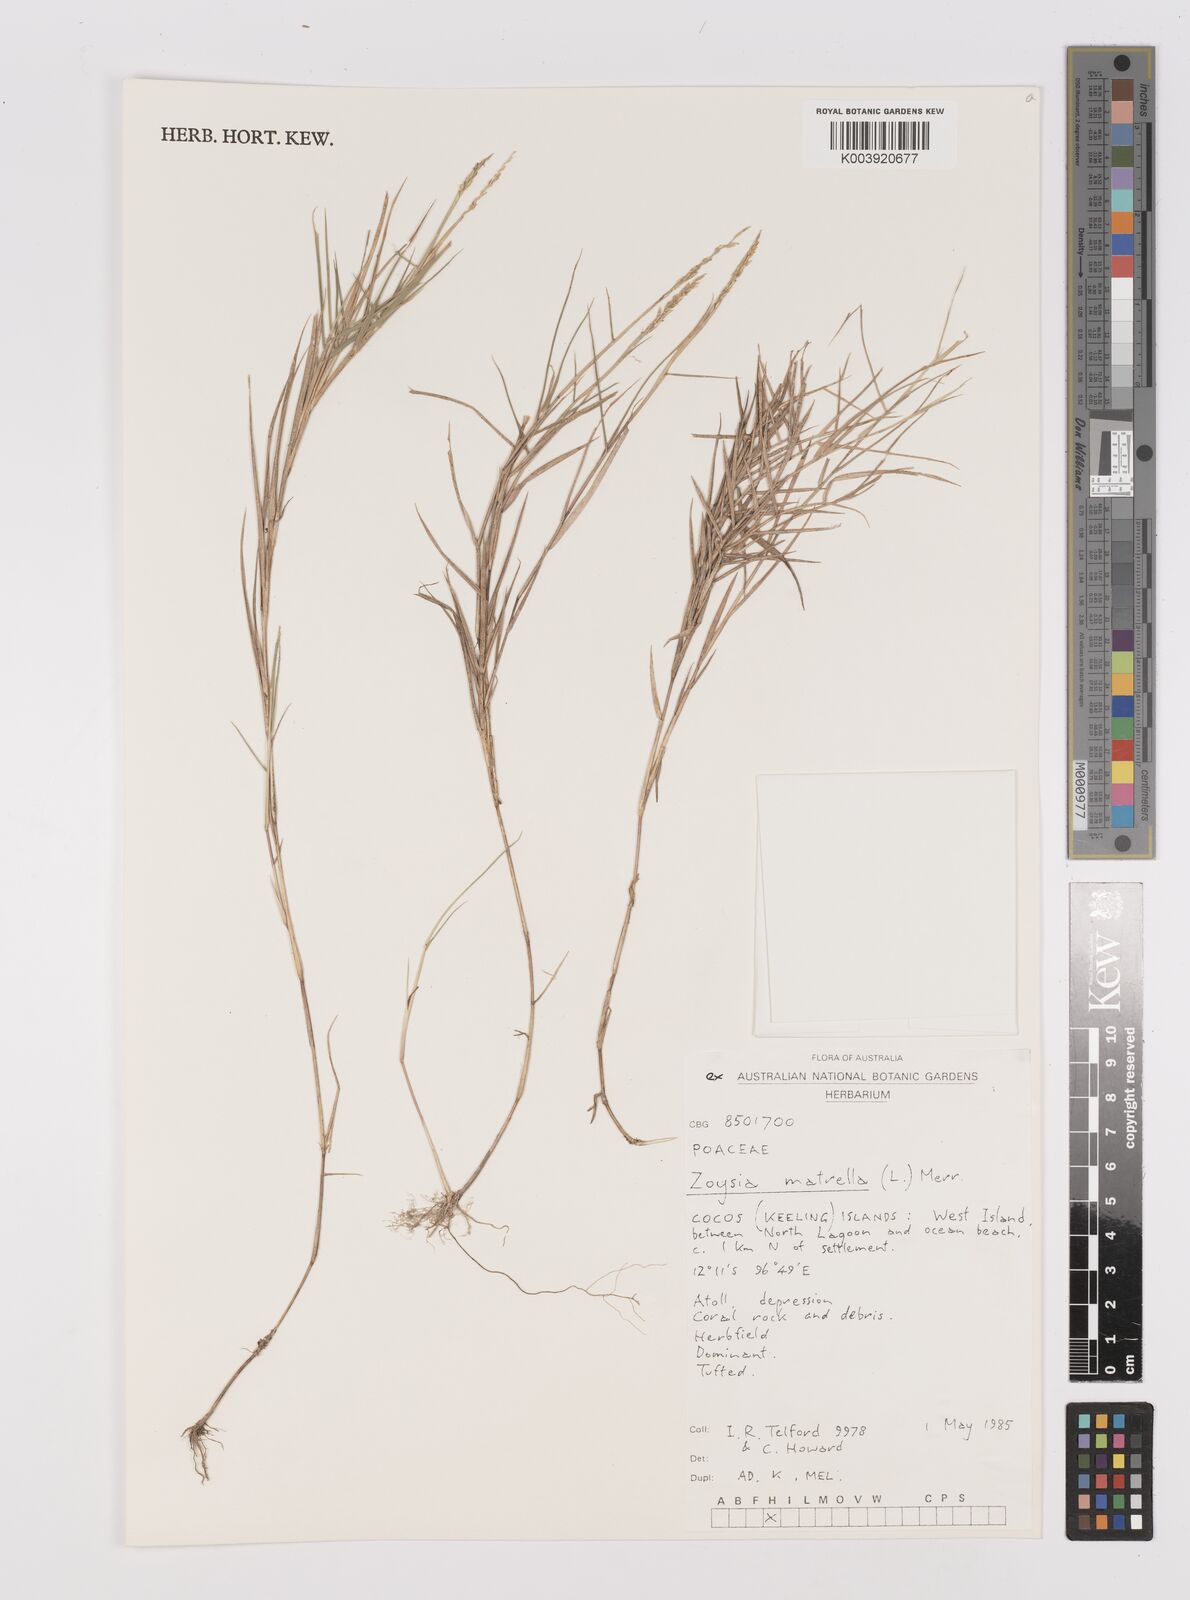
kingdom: Plantae
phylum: Tracheophyta
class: Liliopsida
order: Poales
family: Poaceae
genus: Zoysia
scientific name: Zoysia matrella
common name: Manila grass
